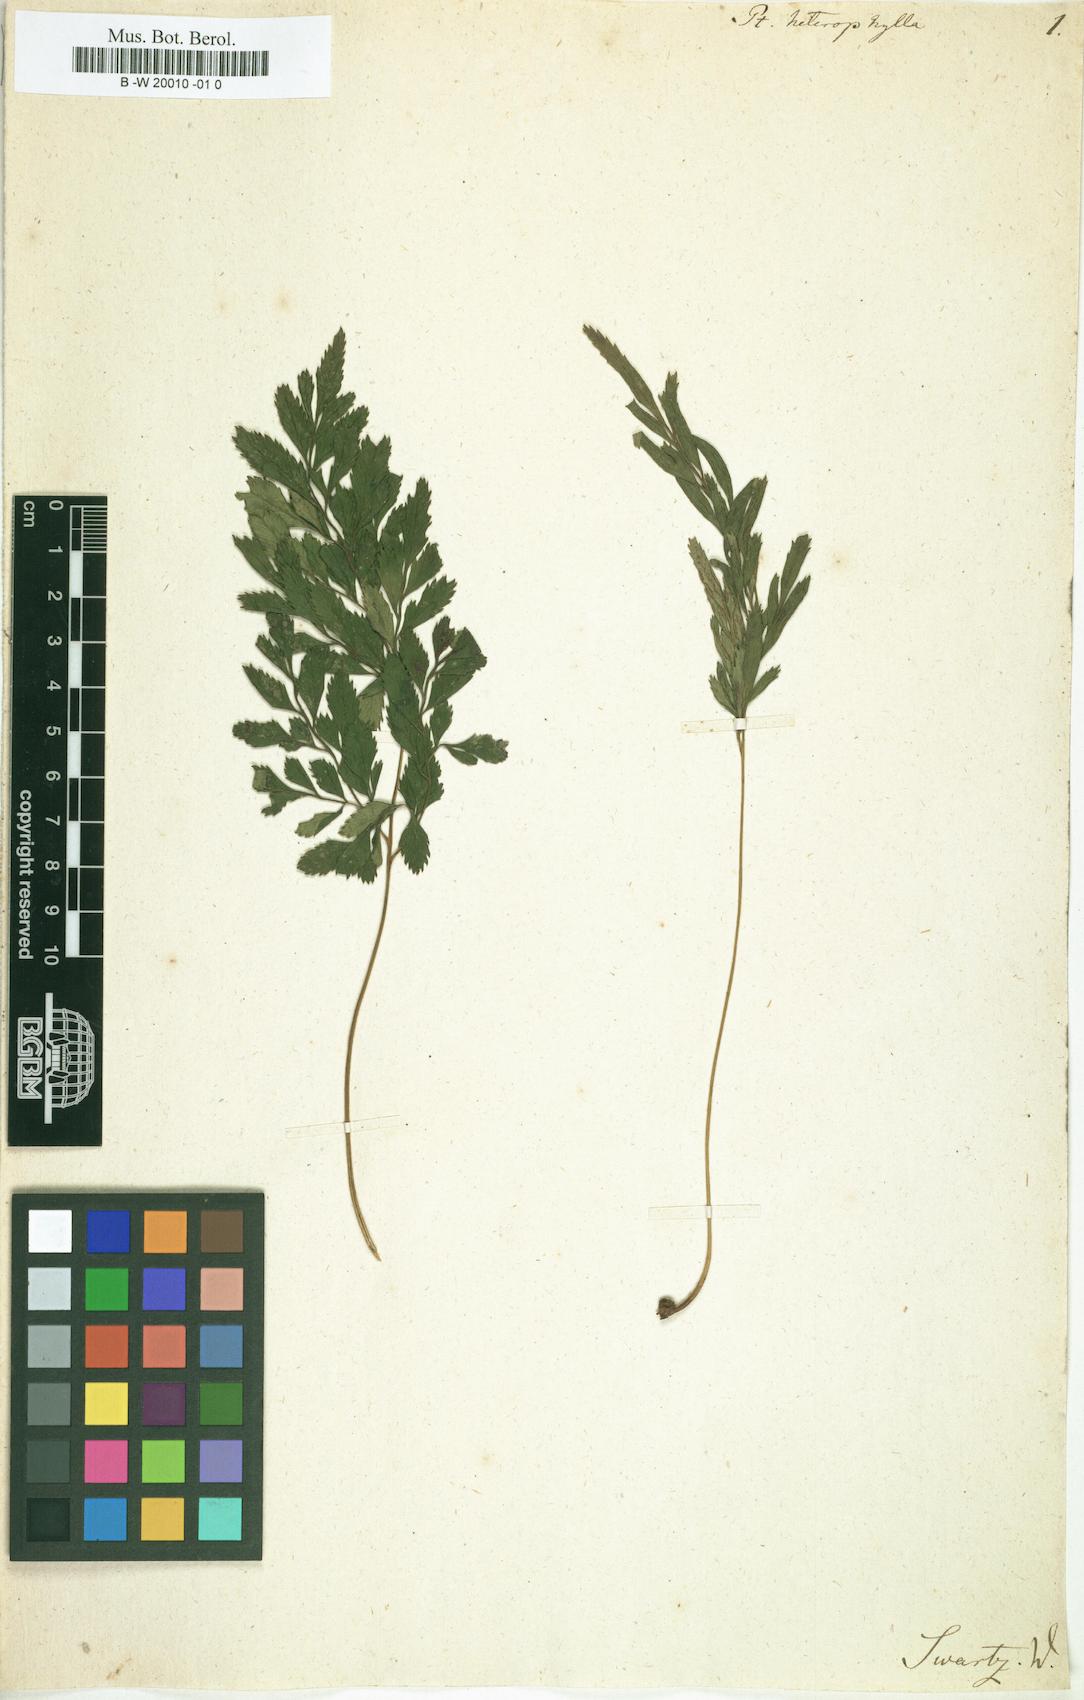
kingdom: Plantae
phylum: Tracheophyta
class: Polypodiopsida
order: Polypodiales
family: Pteridaceae
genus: Pteris
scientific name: Pteris hexagona
